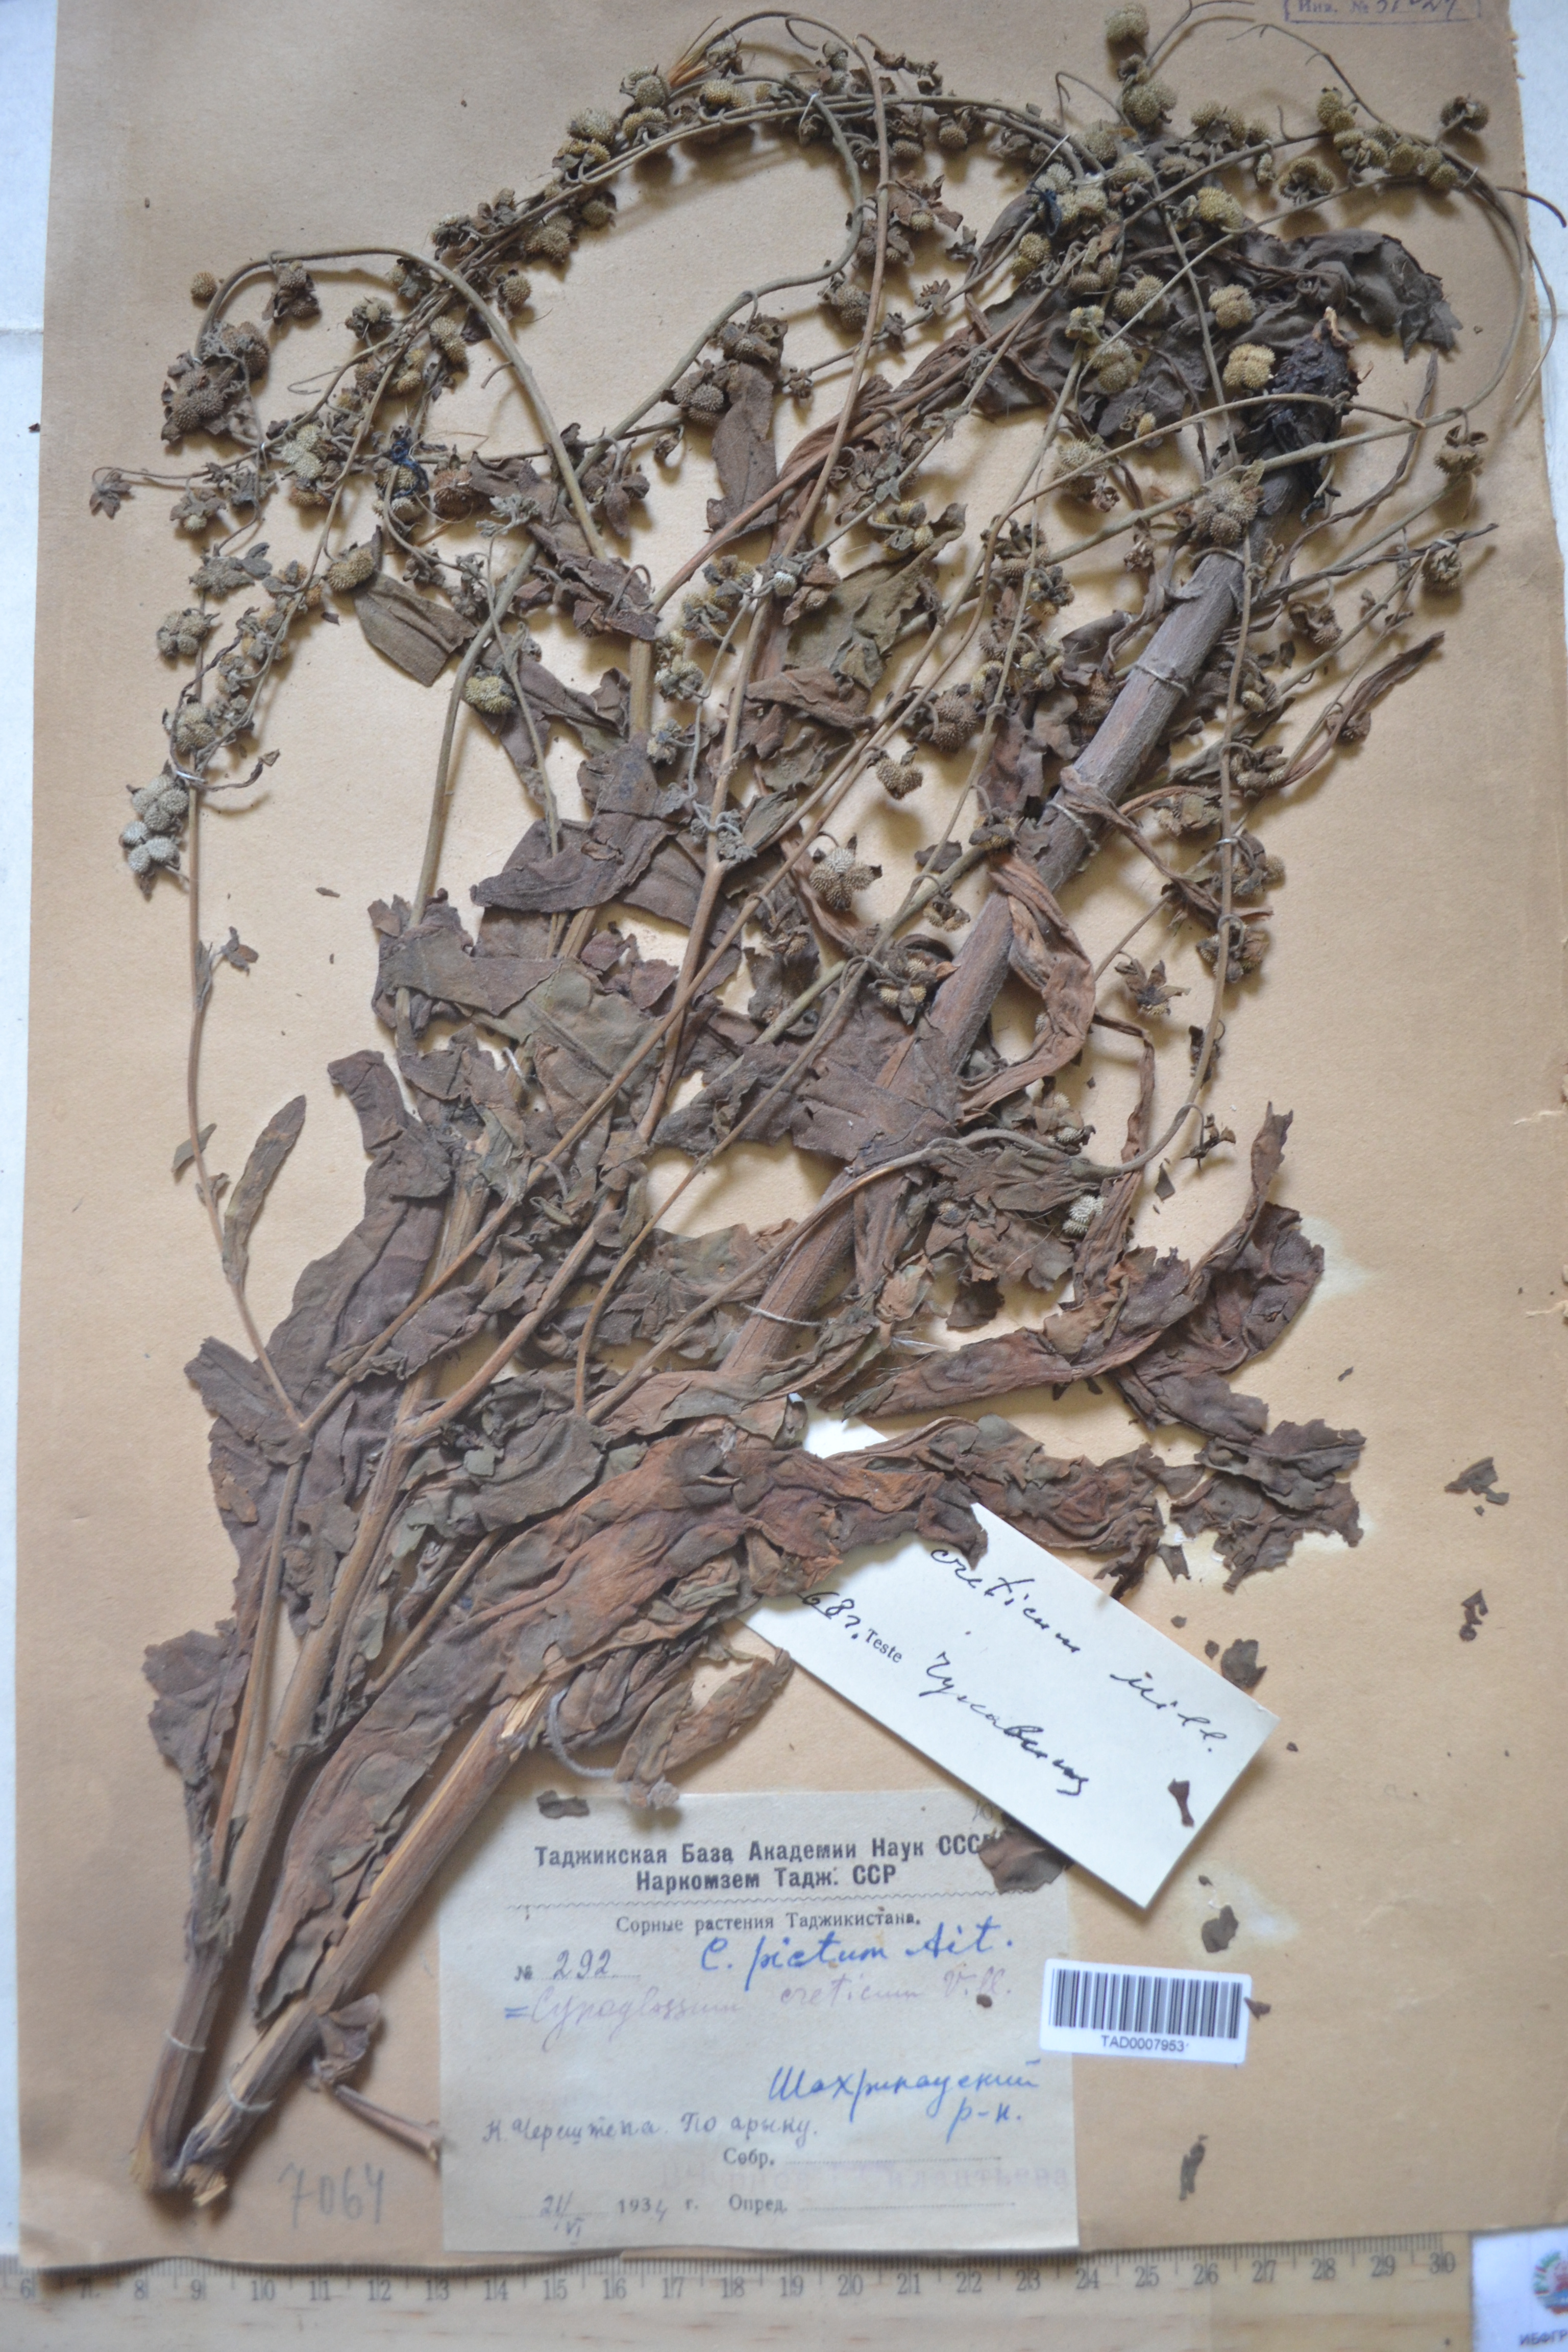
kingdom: Plantae
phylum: Tracheophyta
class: Magnoliopsida
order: Boraginales
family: Boraginaceae
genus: Cynoglossum
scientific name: Cynoglossum creticum
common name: Blue hound's tongue
